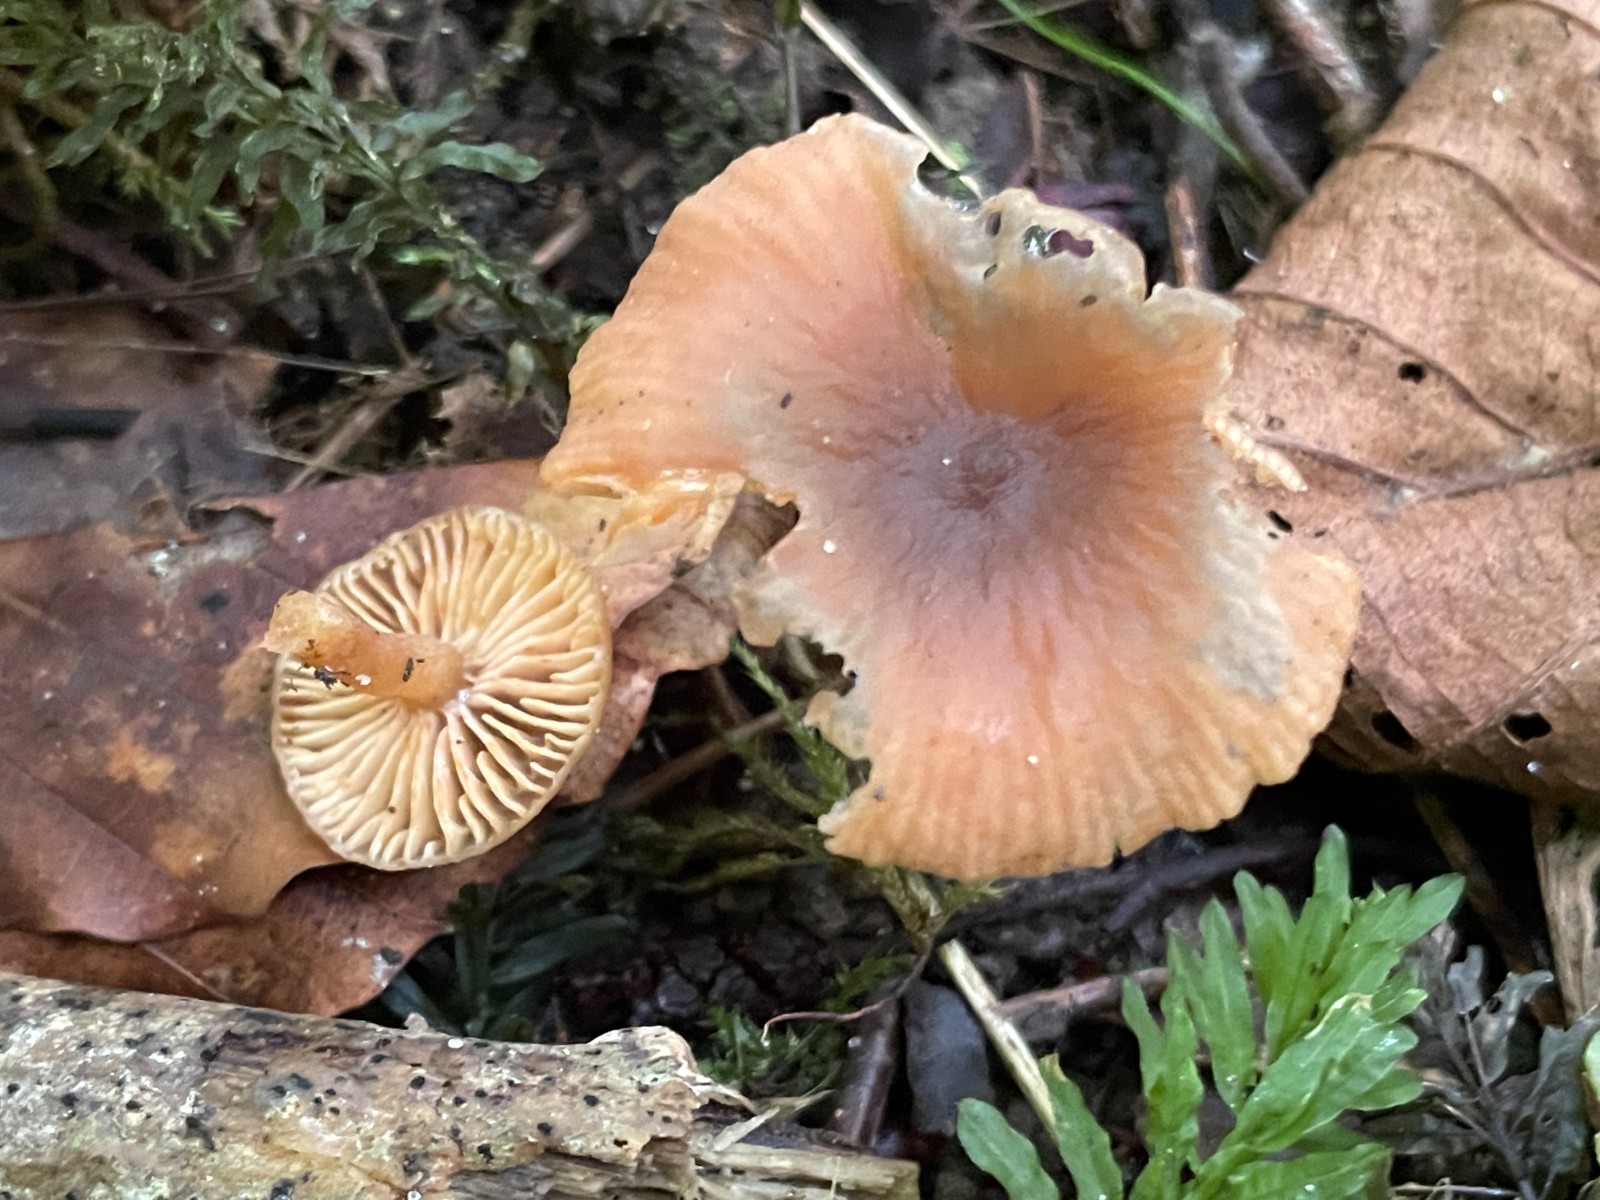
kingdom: Fungi
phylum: Basidiomycota
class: Agaricomycetes
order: Russulales
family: Russulaceae
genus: Lactarius
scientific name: Lactarius obscuratus
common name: elle-mælkehat
